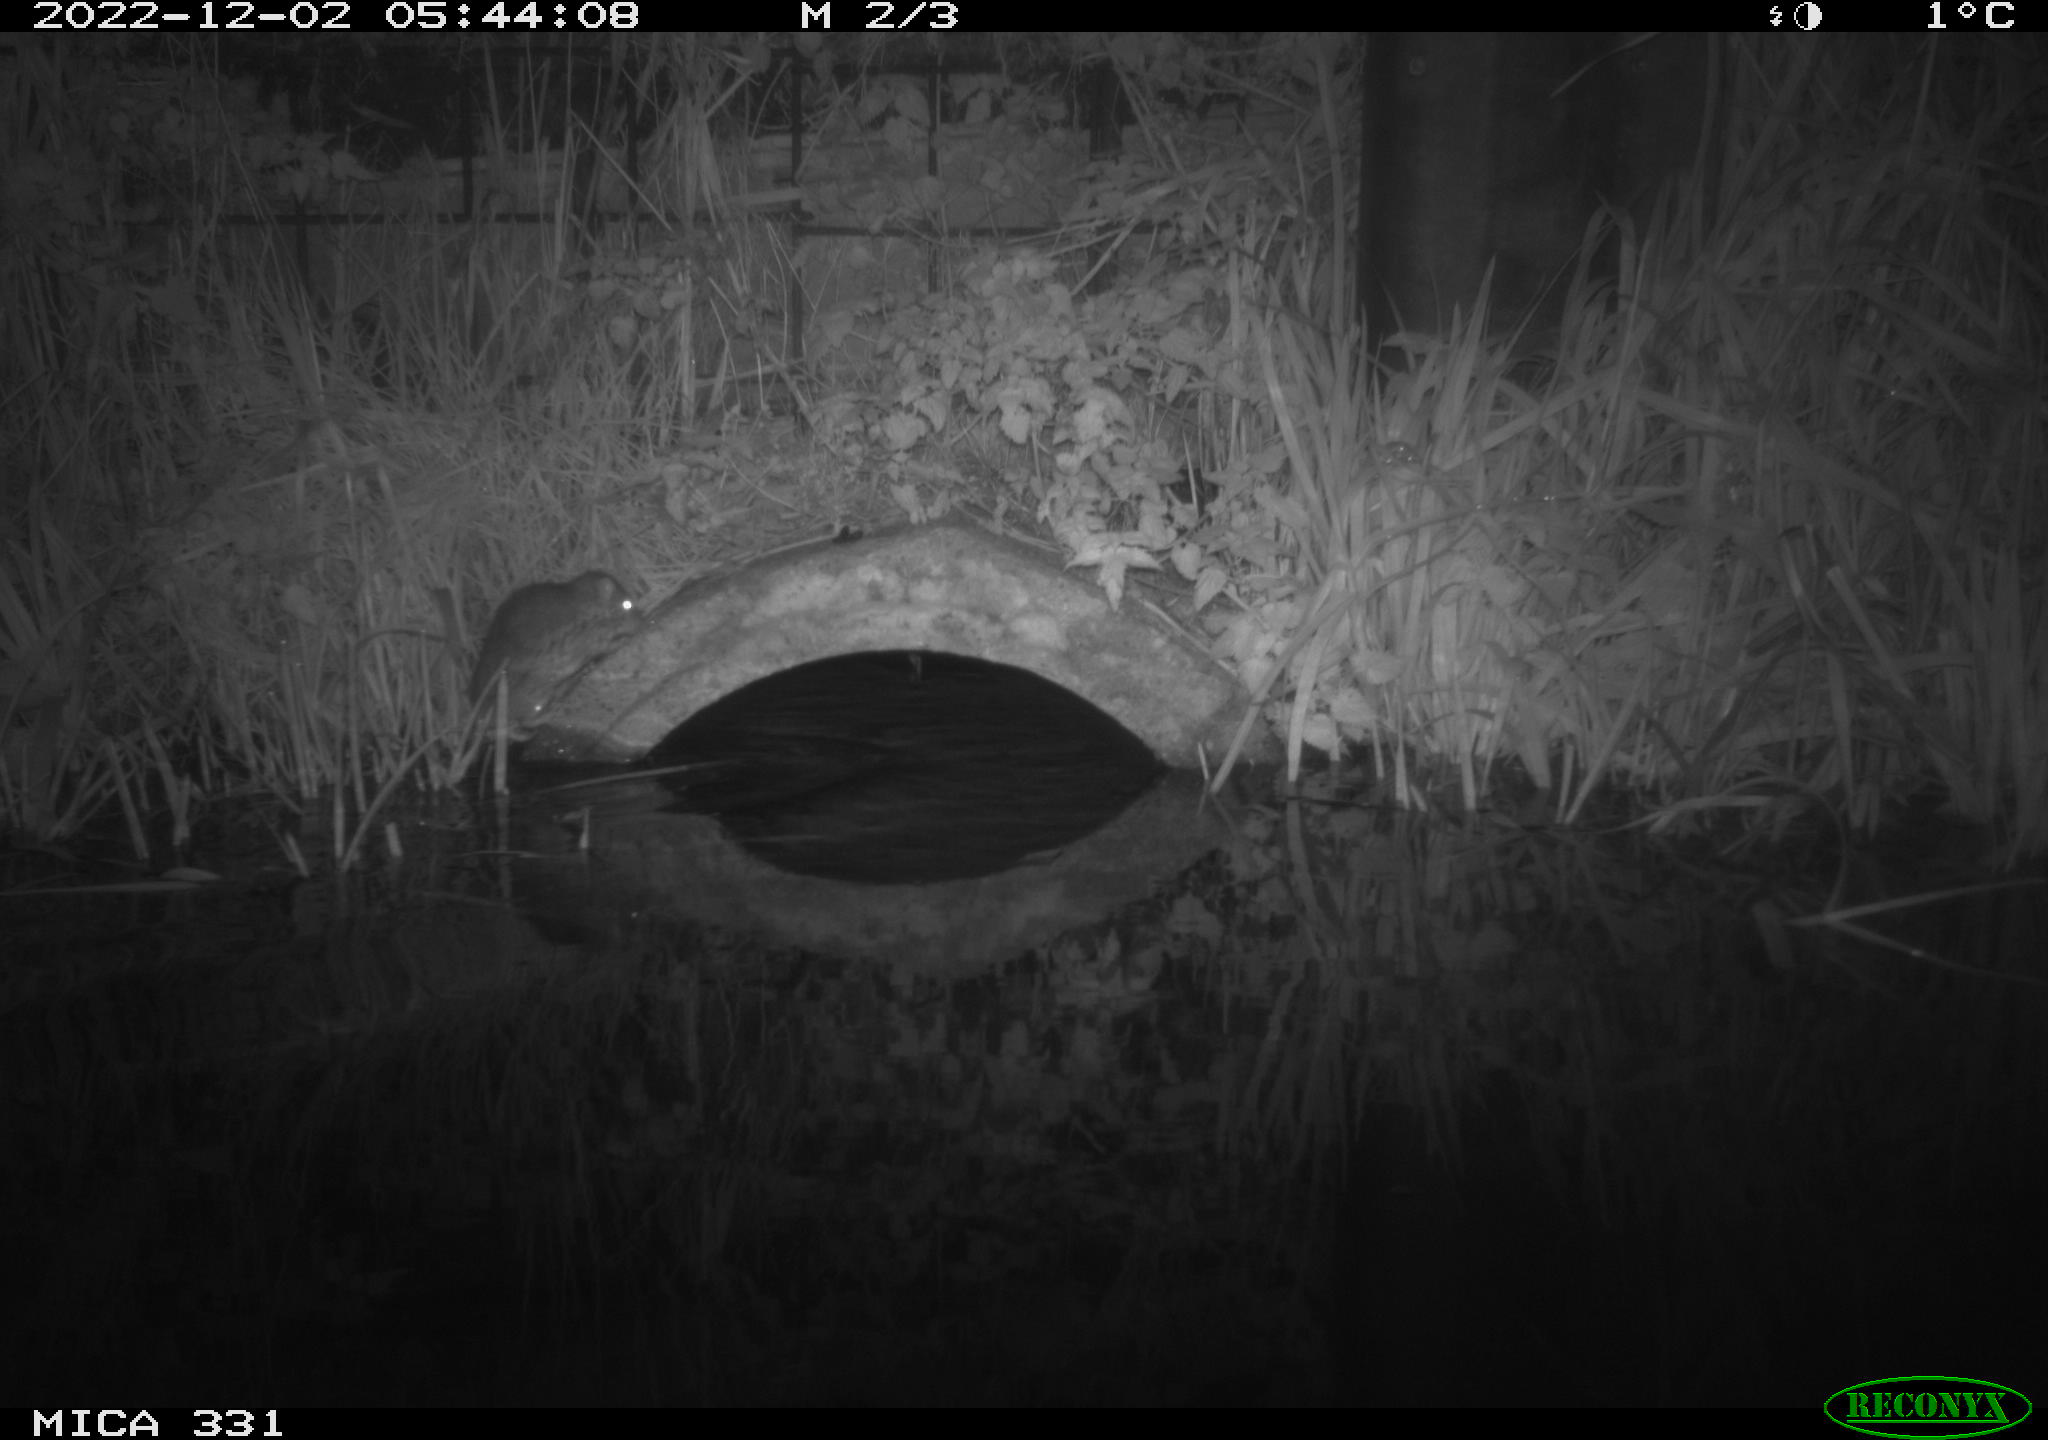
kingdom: Animalia
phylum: Chordata
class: Mammalia
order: Rodentia
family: Muridae
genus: Rattus
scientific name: Rattus norvegicus
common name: Brown rat
